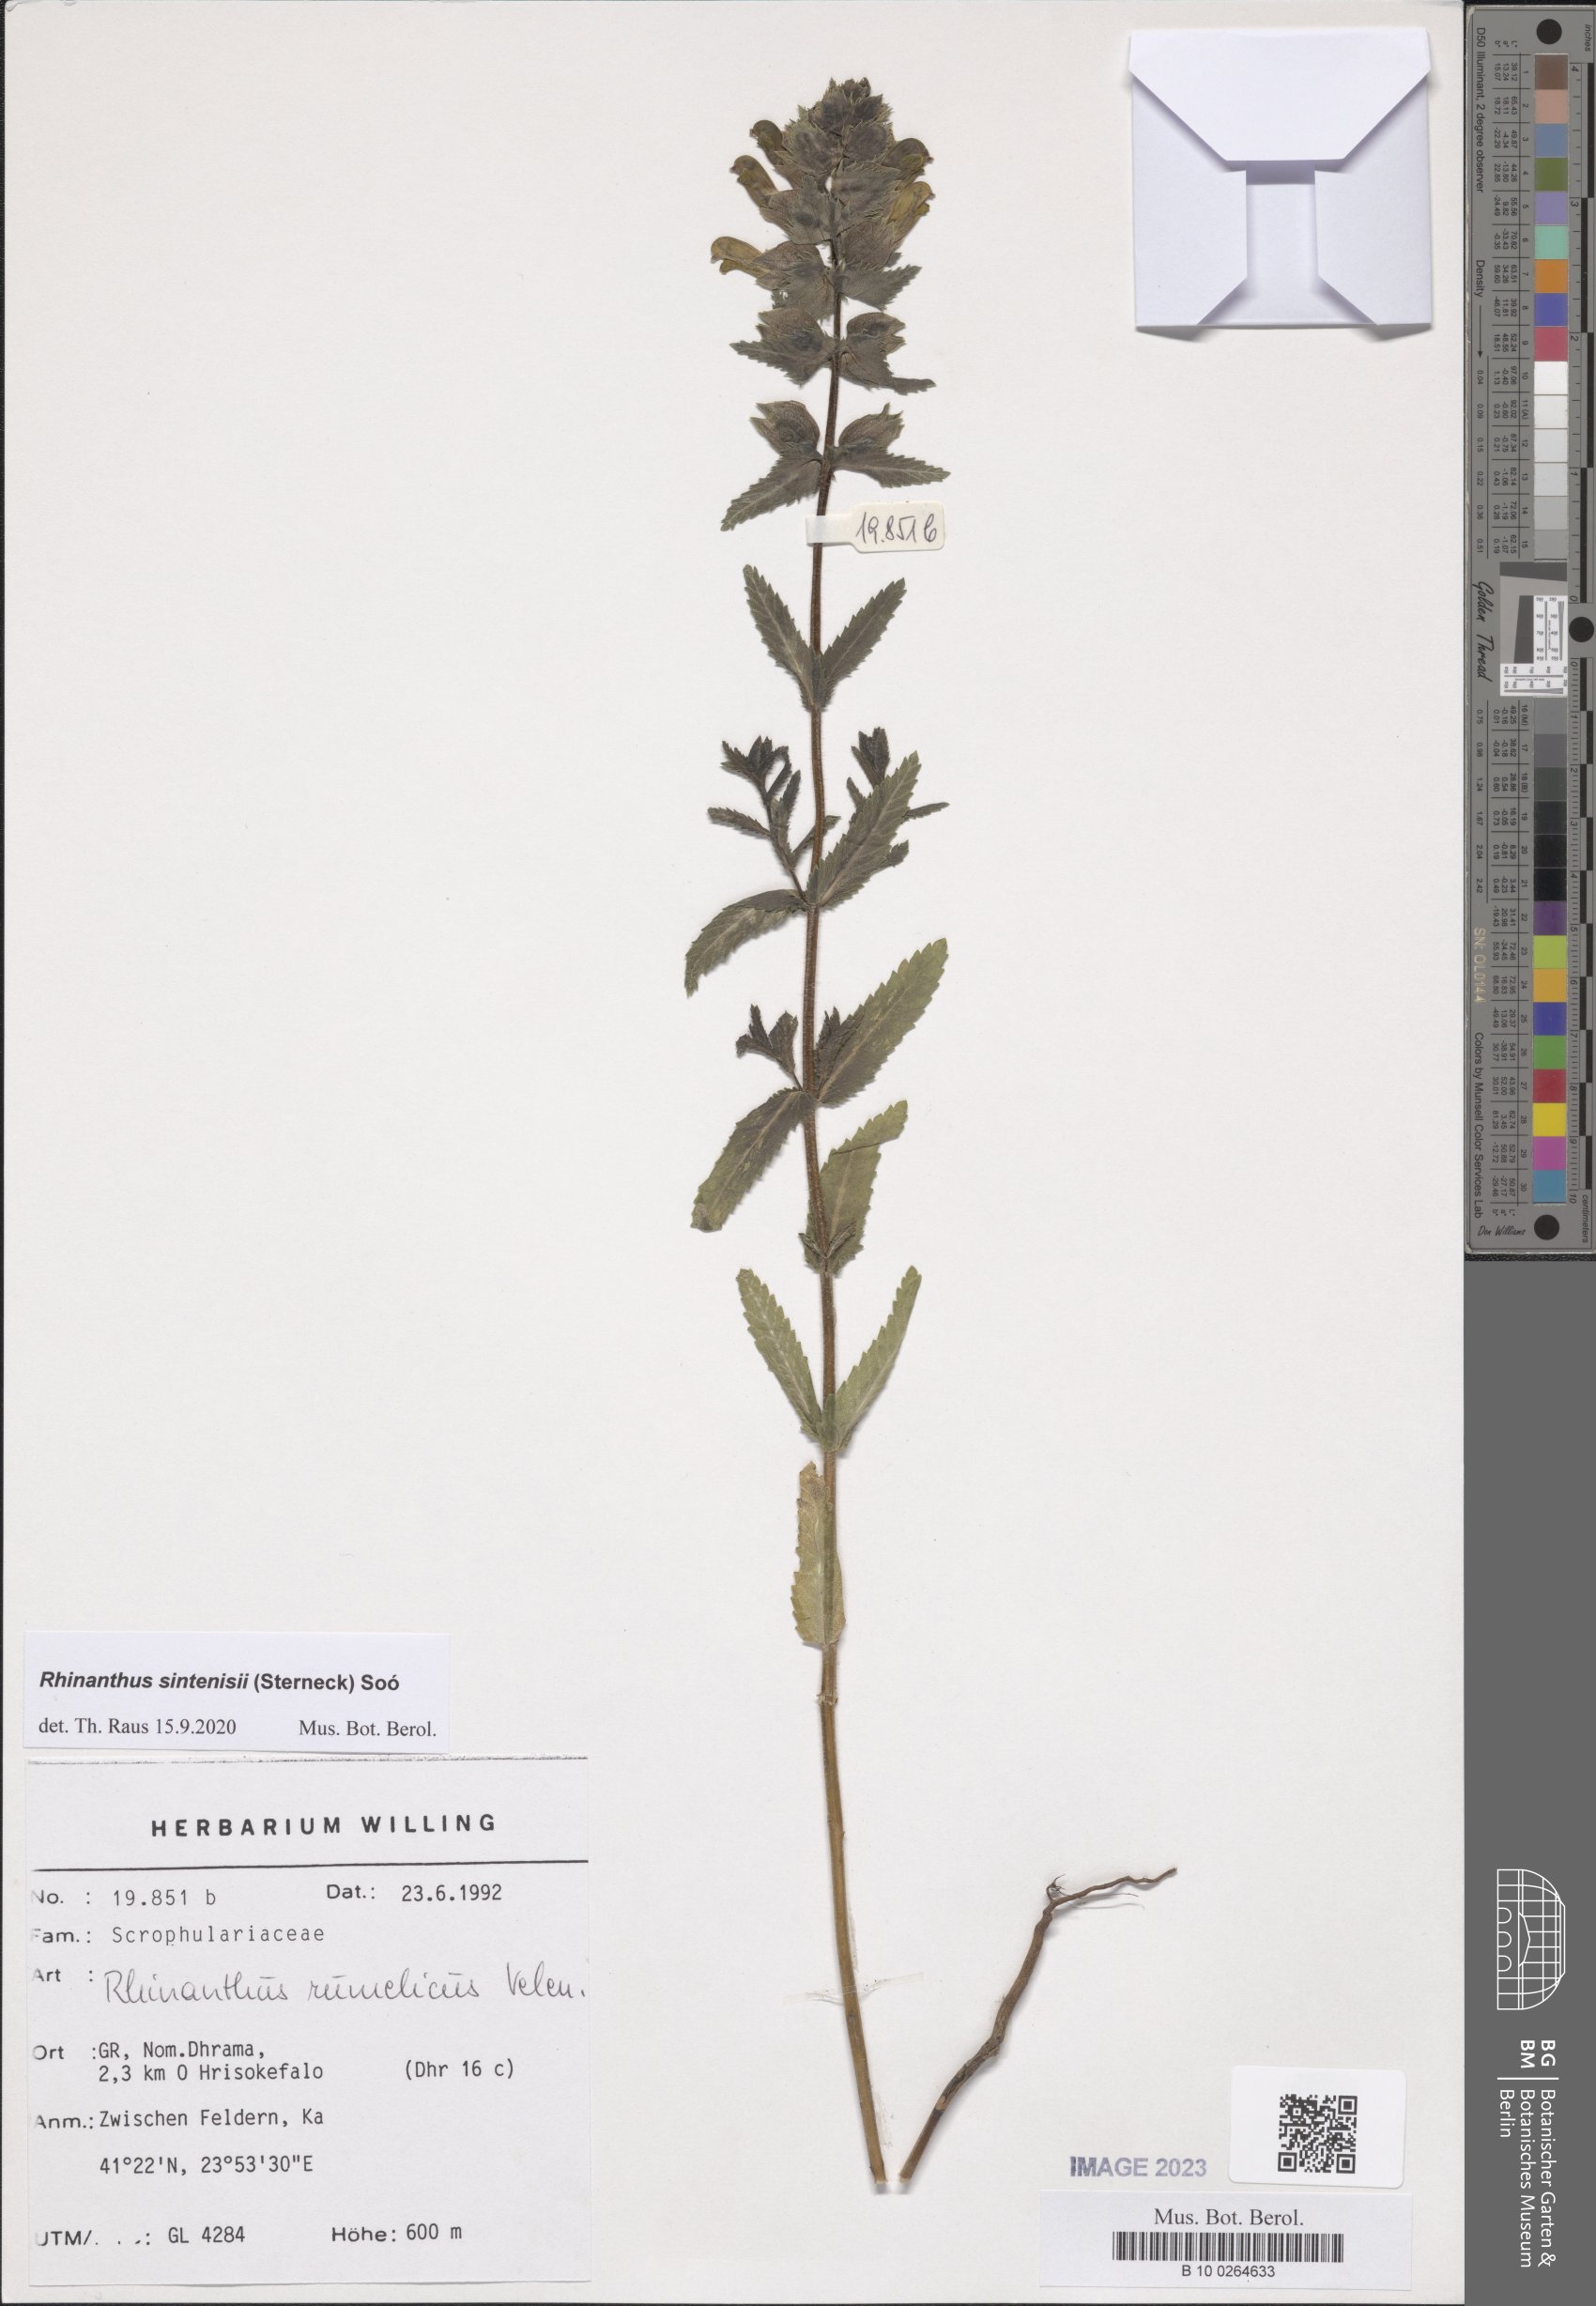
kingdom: Plantae
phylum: Tracheophyta
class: Magnoliopsida
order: Lamiales
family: Orobanchaceae
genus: Rhinanthus
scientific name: Rhinanthus sintenisii
